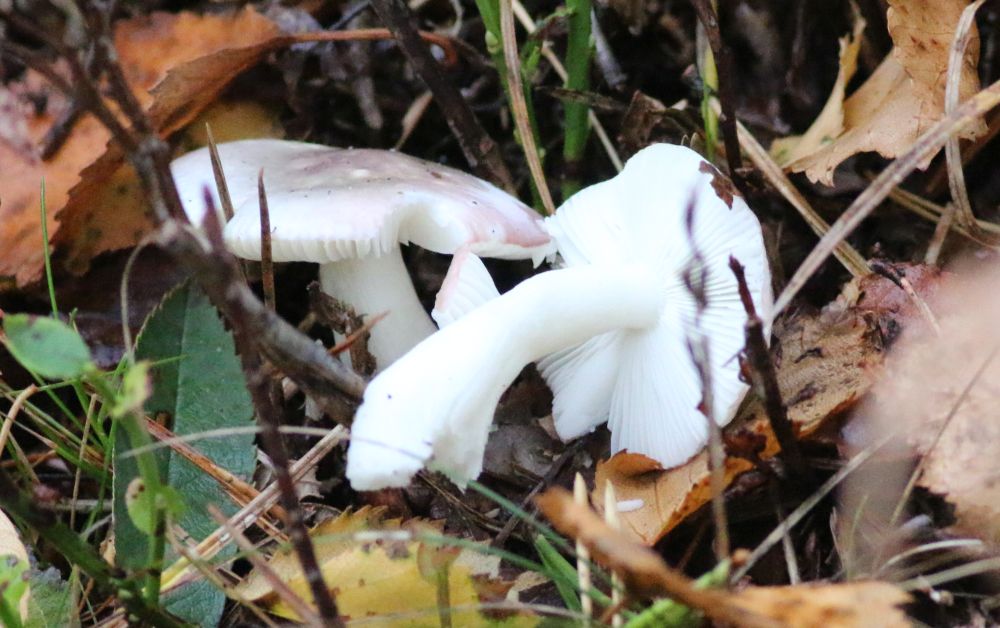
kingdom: Fungi
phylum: Basidiomycota
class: Agaricomycetes
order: Russulales
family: Russulaceae
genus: Russula
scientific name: Russula betularum
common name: bleg gift-skørhat
